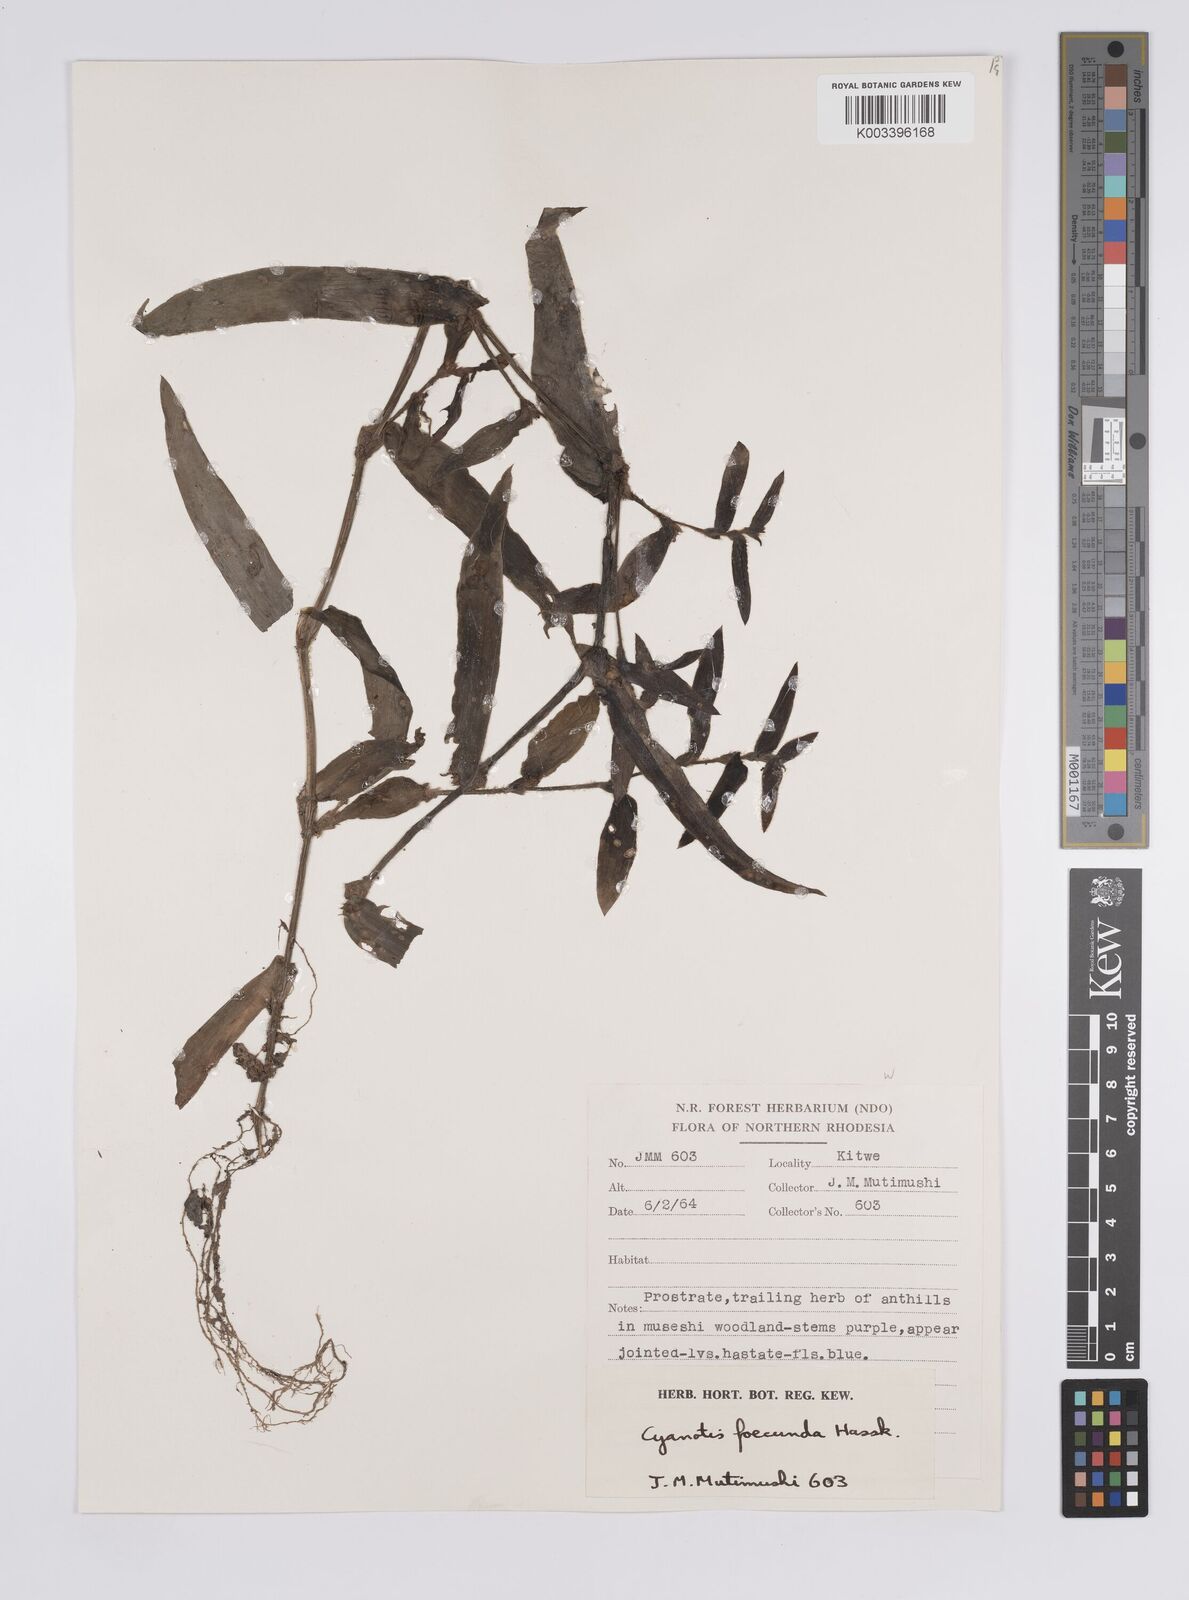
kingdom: Plantae
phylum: Tracheophyta
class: Liliopsida
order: Commelinales
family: Commelinaceae
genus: Cyanotis
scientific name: Cyanotis foecunda
